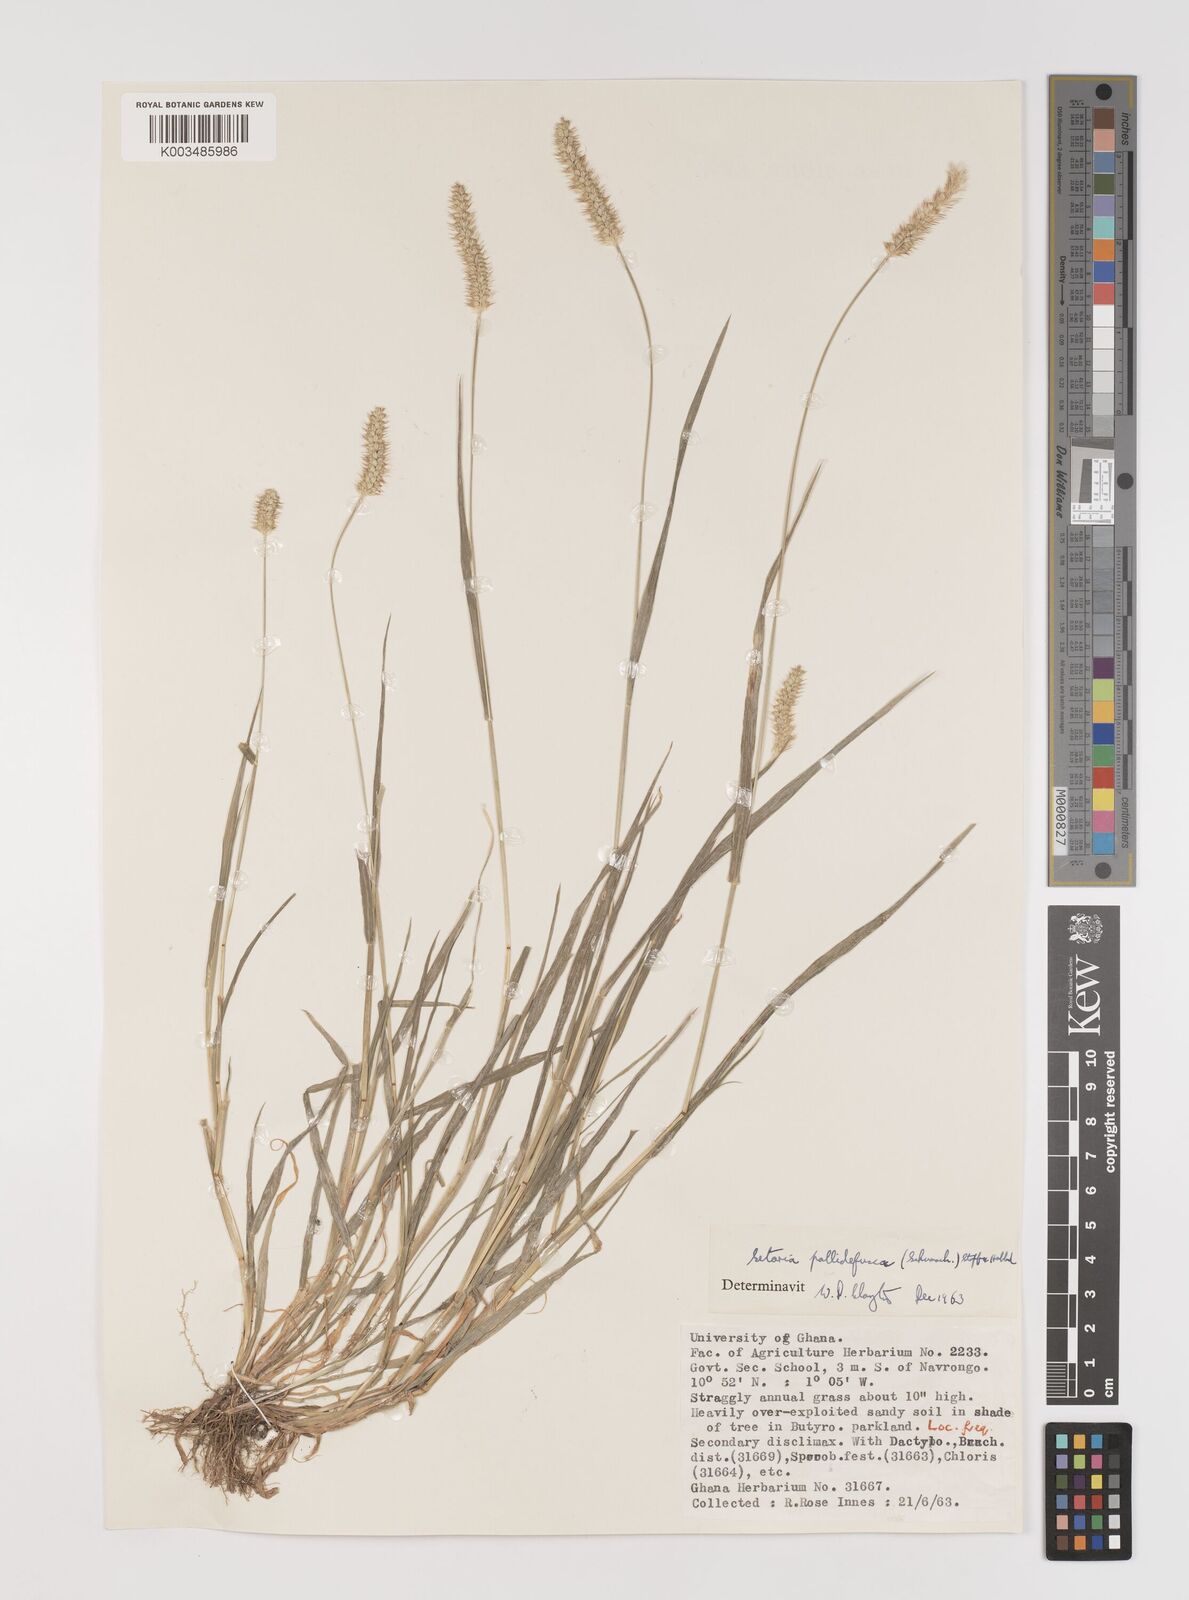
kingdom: Plantae
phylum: Tracheophyta
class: Liliopsida
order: Poales
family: Poaceae
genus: Setaria
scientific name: Setaria pumila
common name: Yellow bristle-grass
